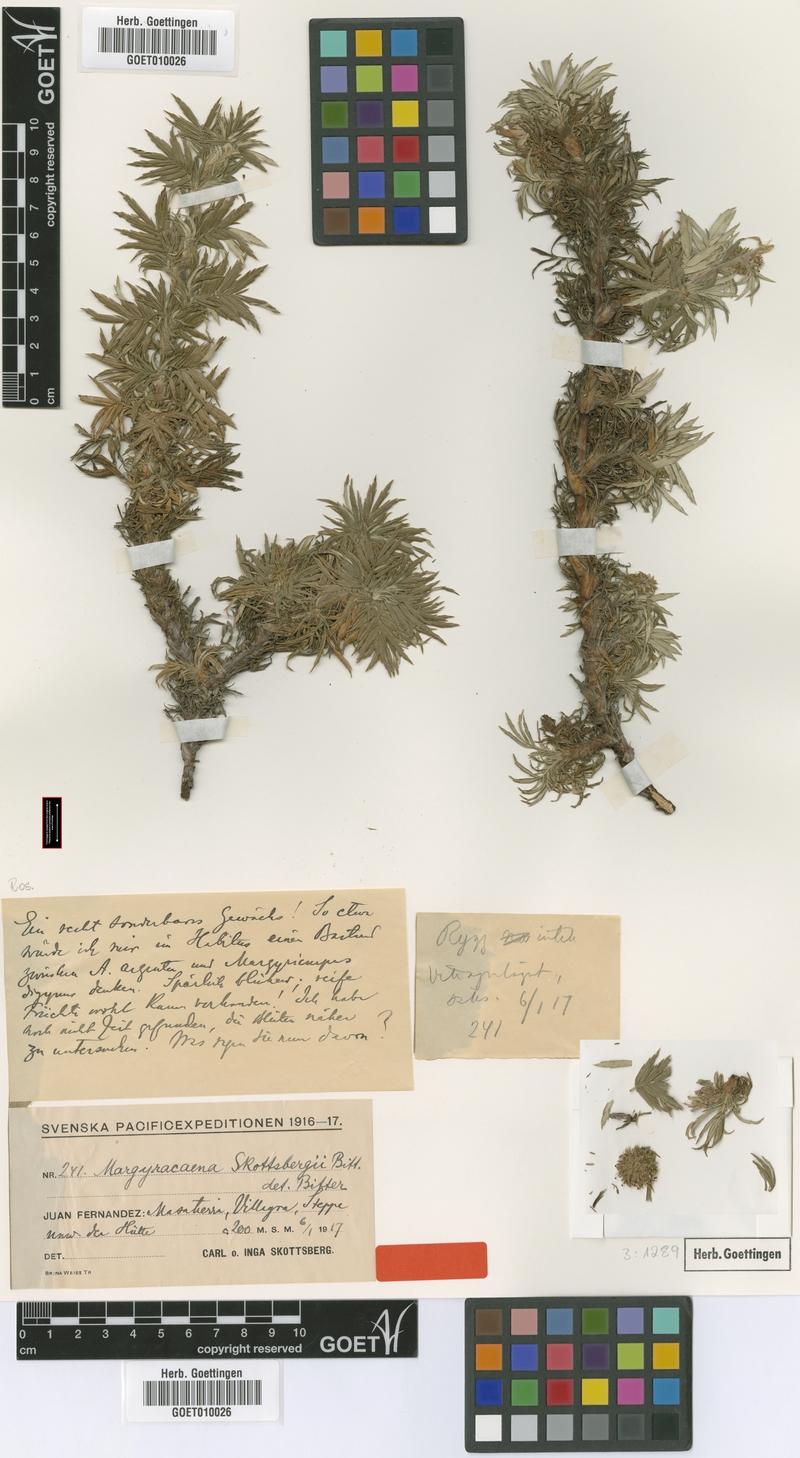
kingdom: Plantae
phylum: Tracheophyta
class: Magnoliopsida
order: Rosales
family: Rosaceae
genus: Margyracaena
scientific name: Margyracaena skottsbergii
